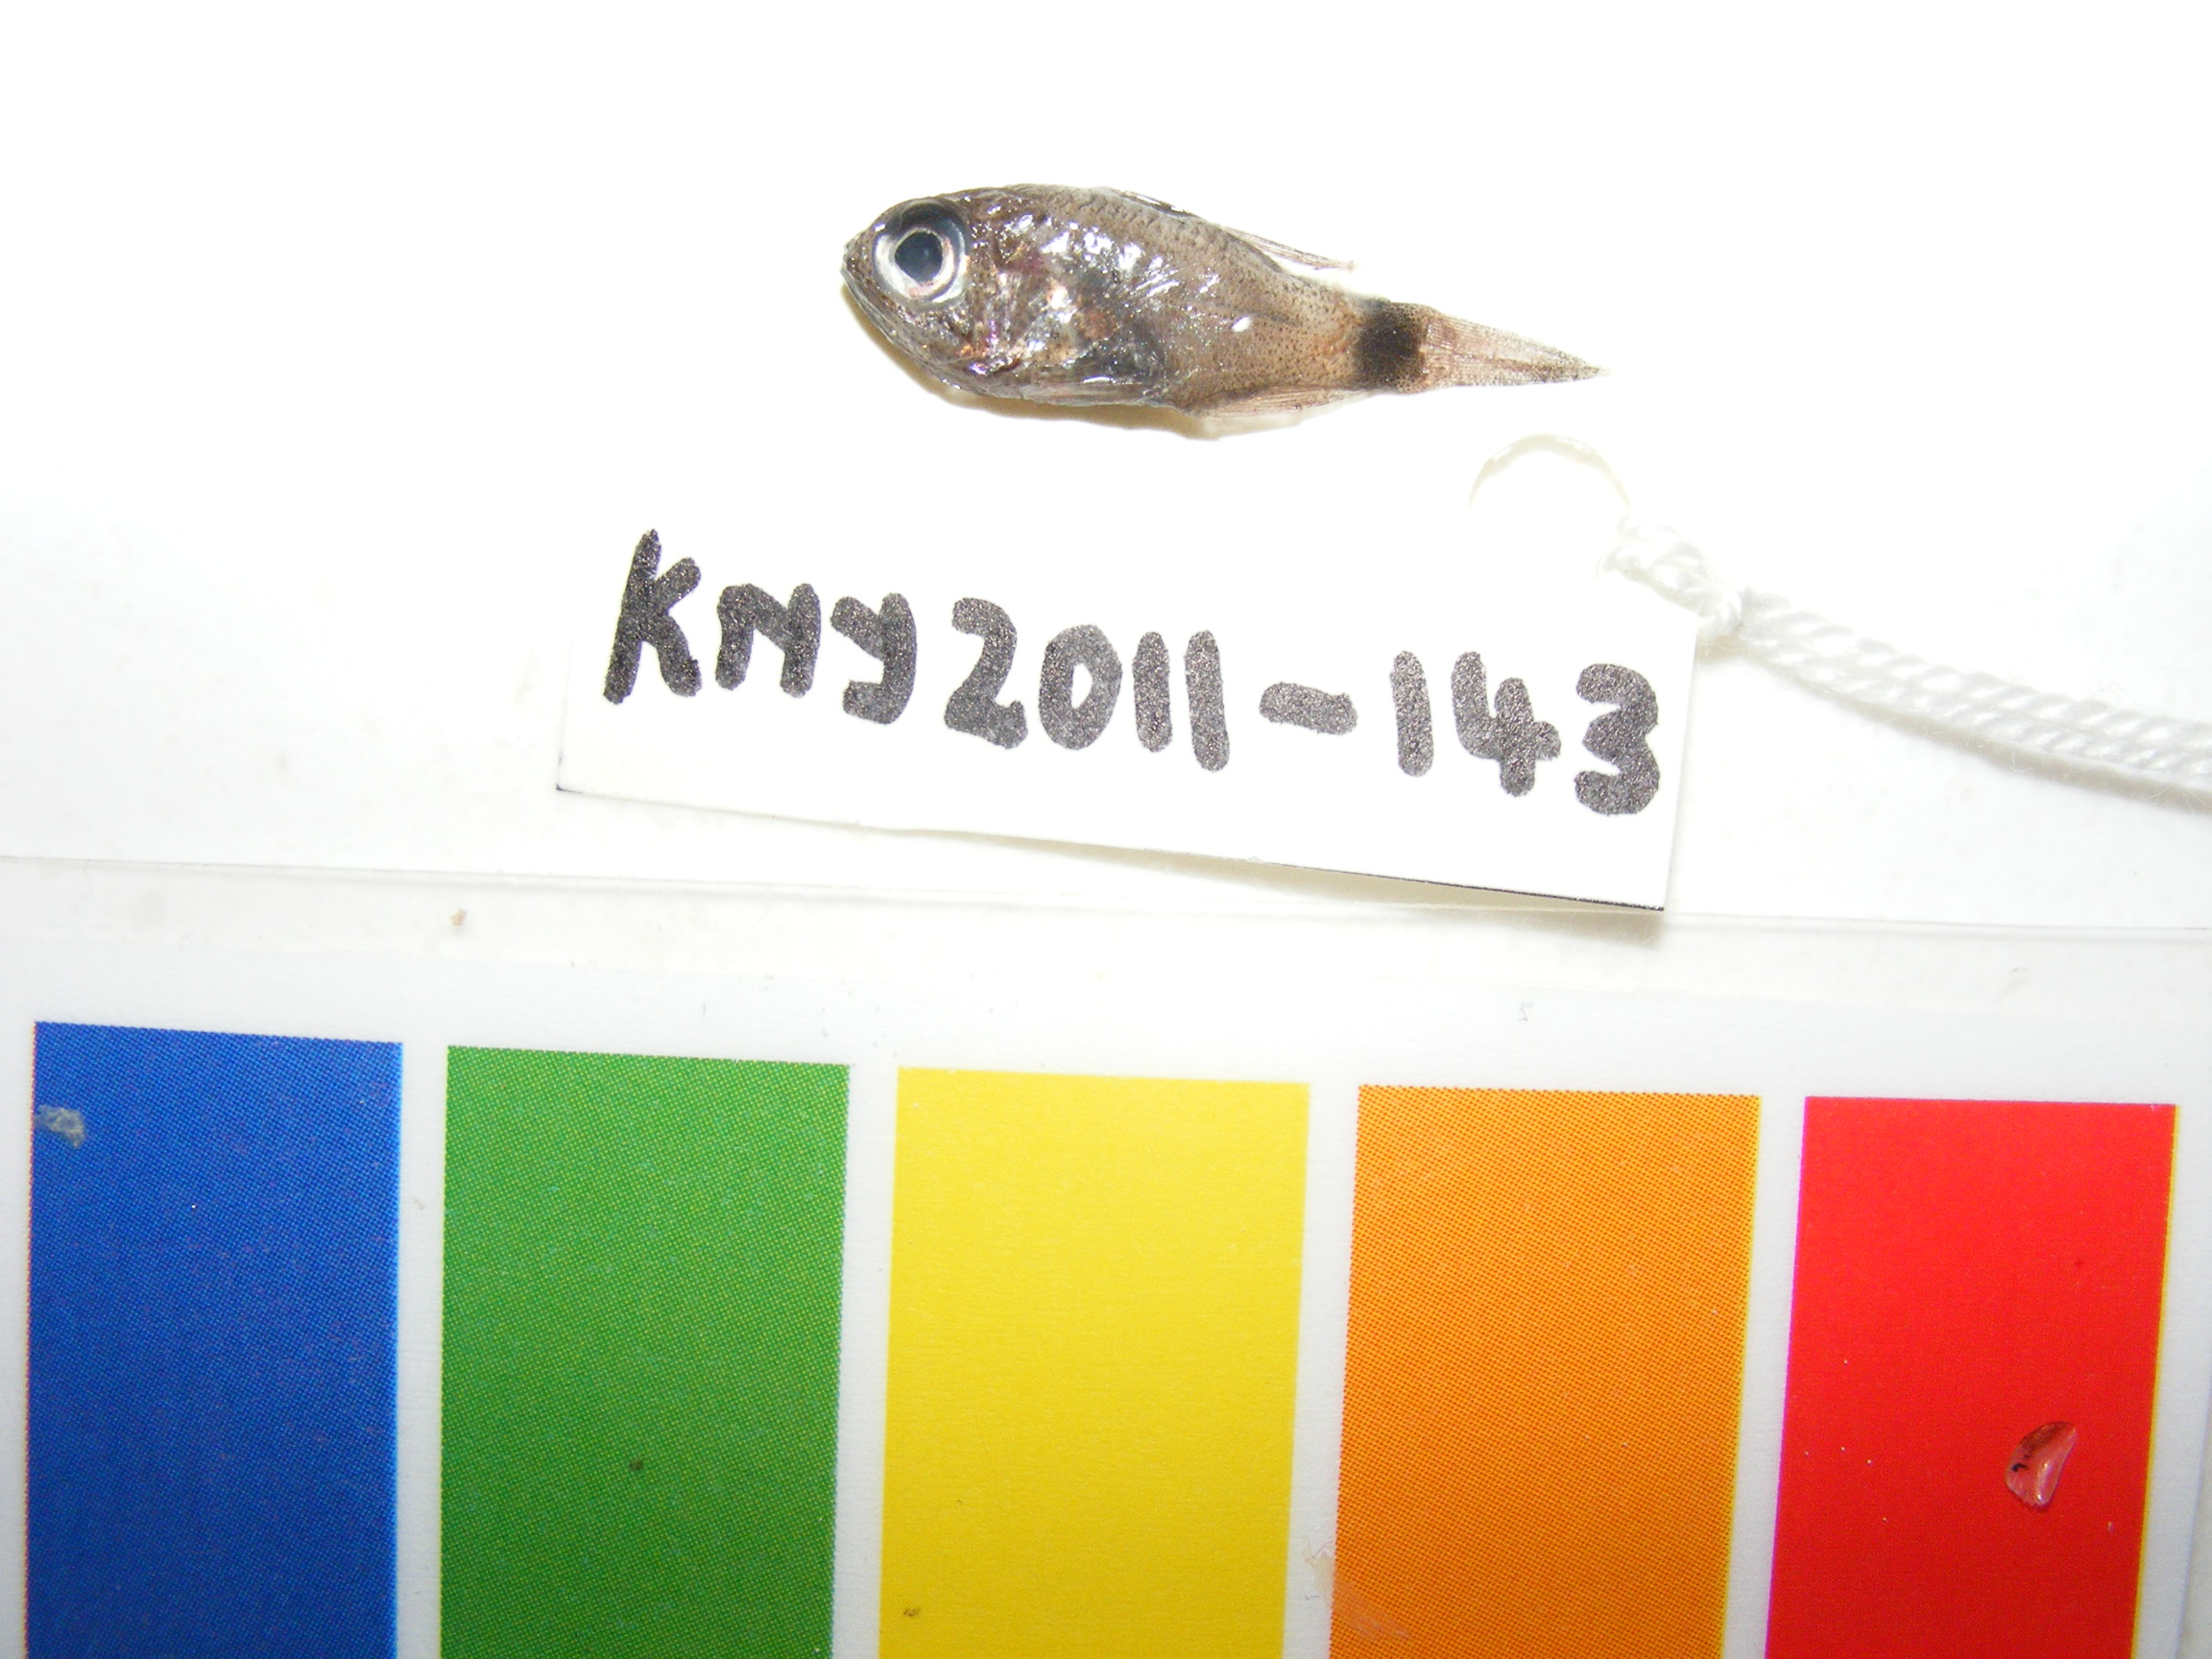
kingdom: Animalia
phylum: Chordata
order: Perciformes
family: Apogonidae
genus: Nectamia
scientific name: Nectamia savayensis
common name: Samoan cardinalfish
